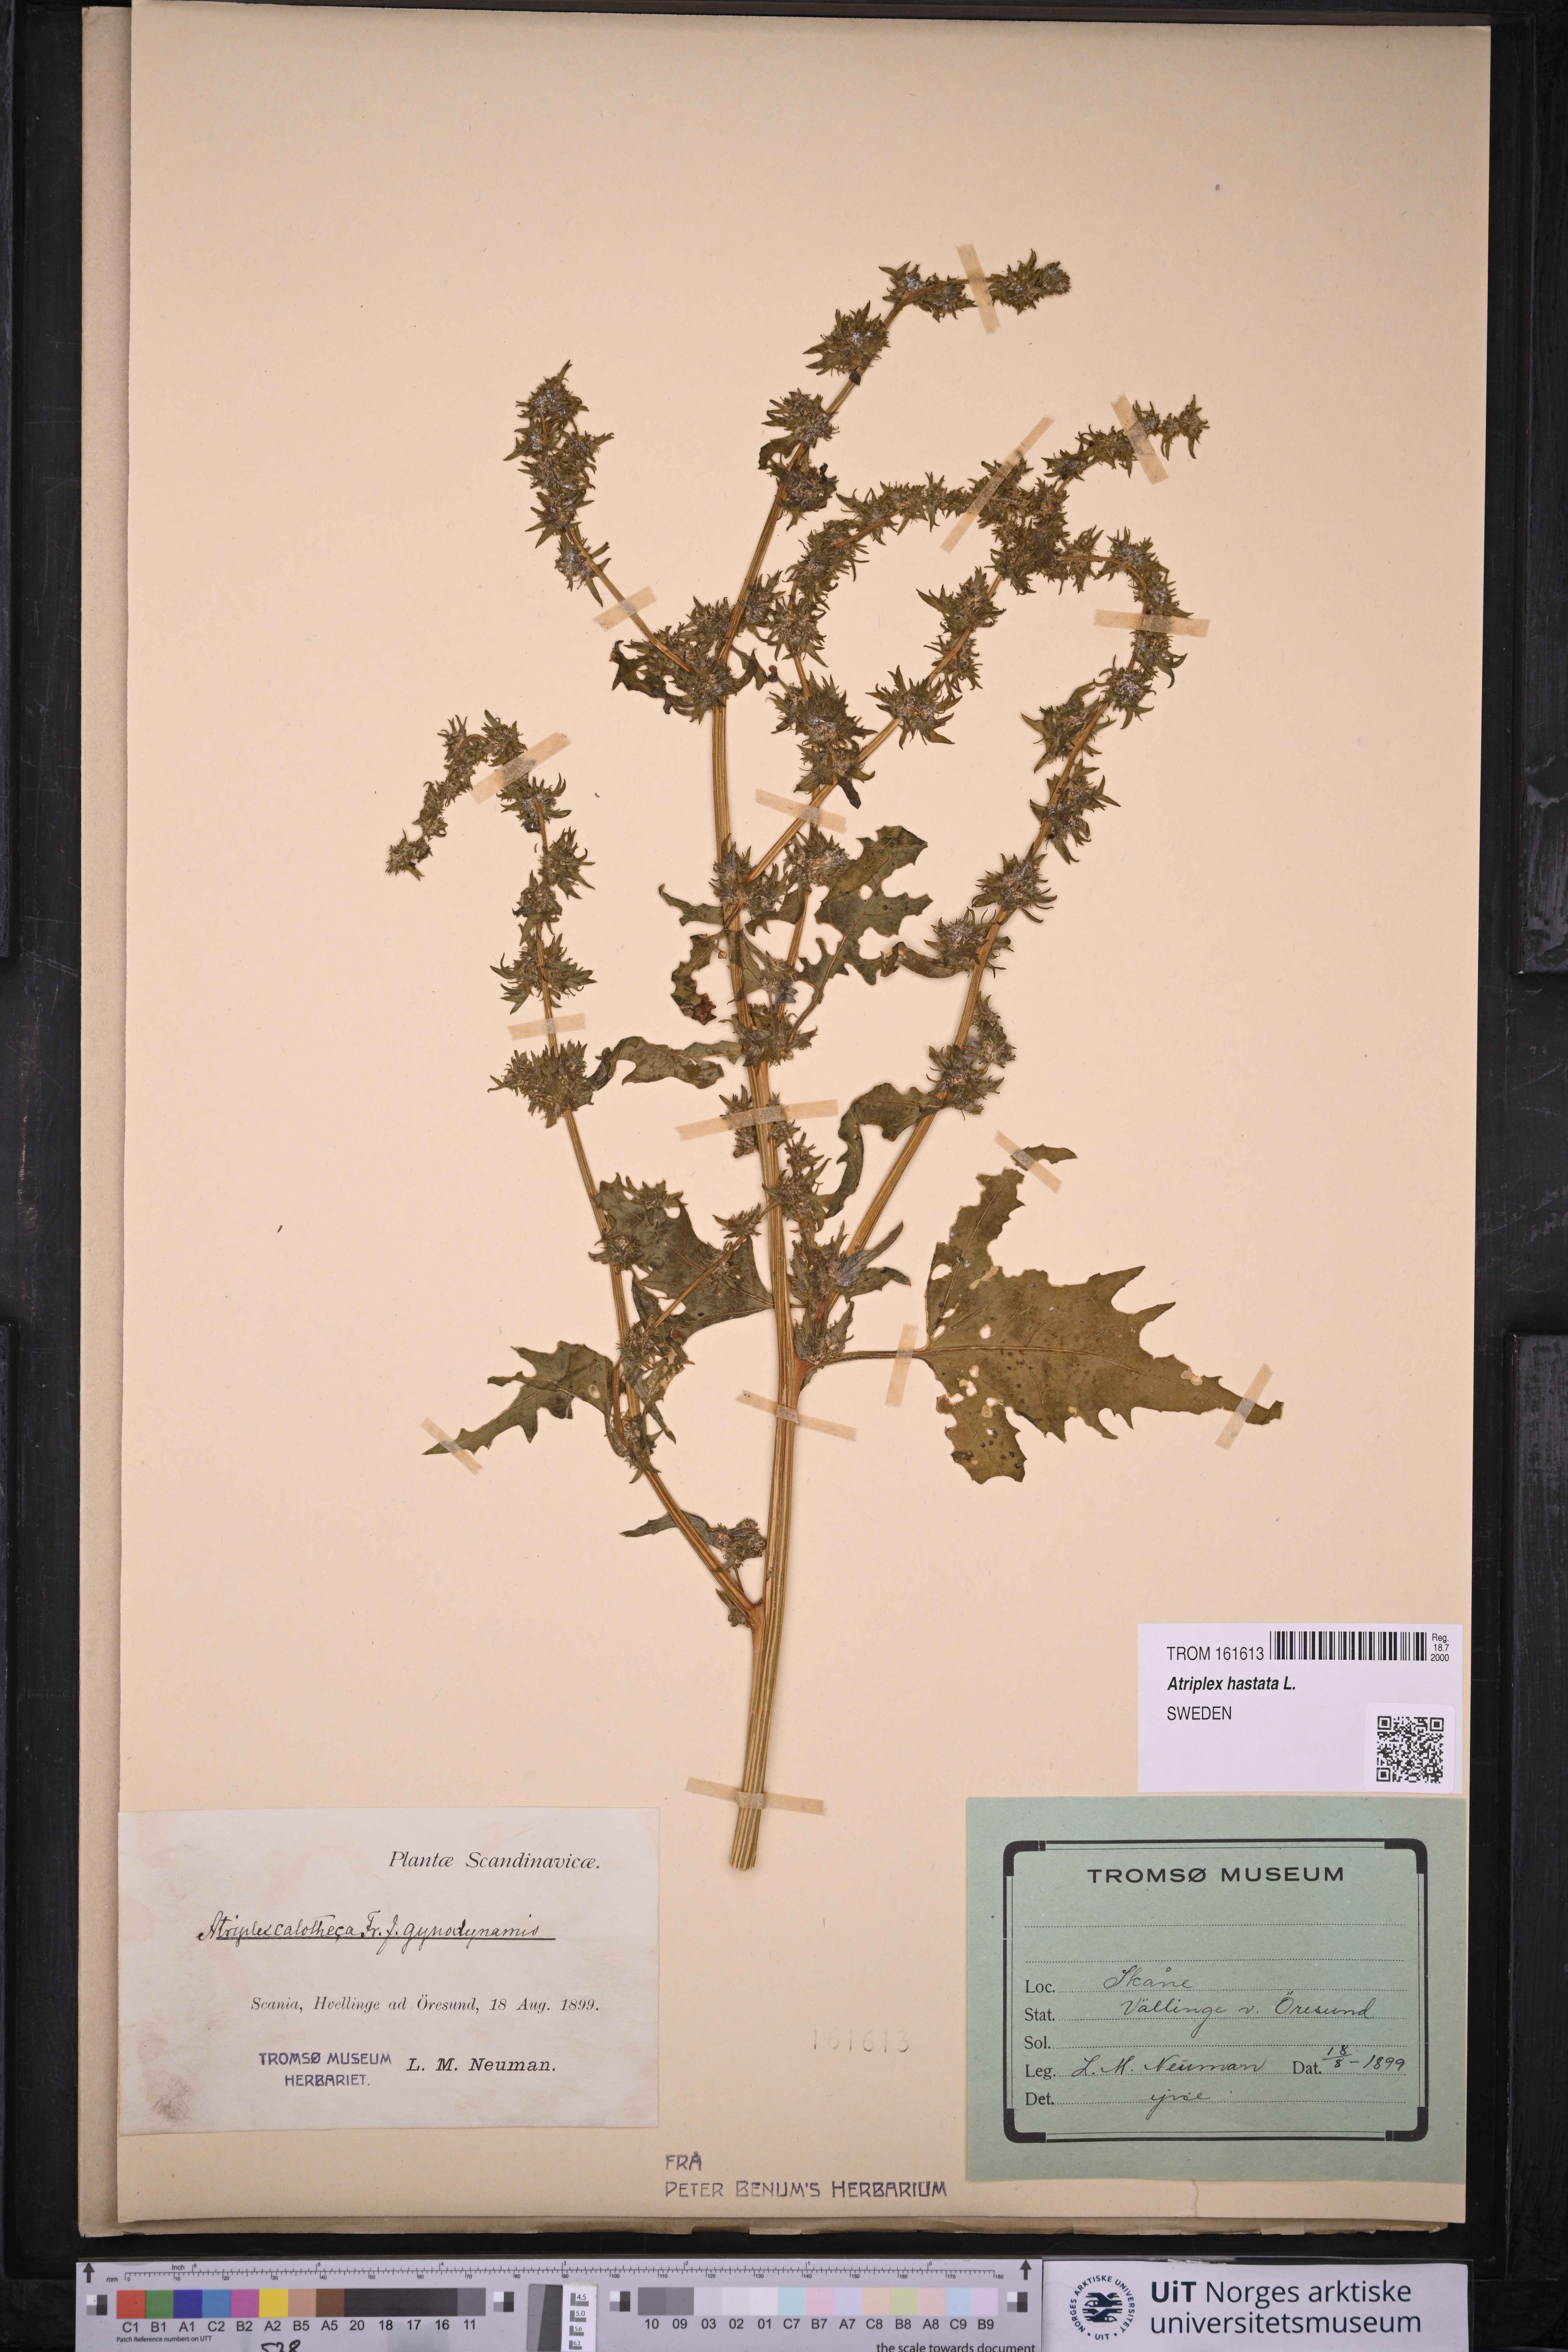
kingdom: Plantae
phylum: Tracheophyta
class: Magnoliopsida
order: Caryophyllales
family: Amaranthaceae
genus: Atriplex
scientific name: Atriplex calotheca
